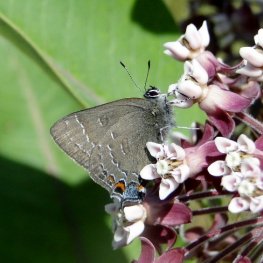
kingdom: Animalia
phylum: Arthropoda
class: Insecta
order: Lepidoptera
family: Lycaenidae
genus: Satyrium
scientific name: Satyrium calanus
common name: Banded Hairstreak
